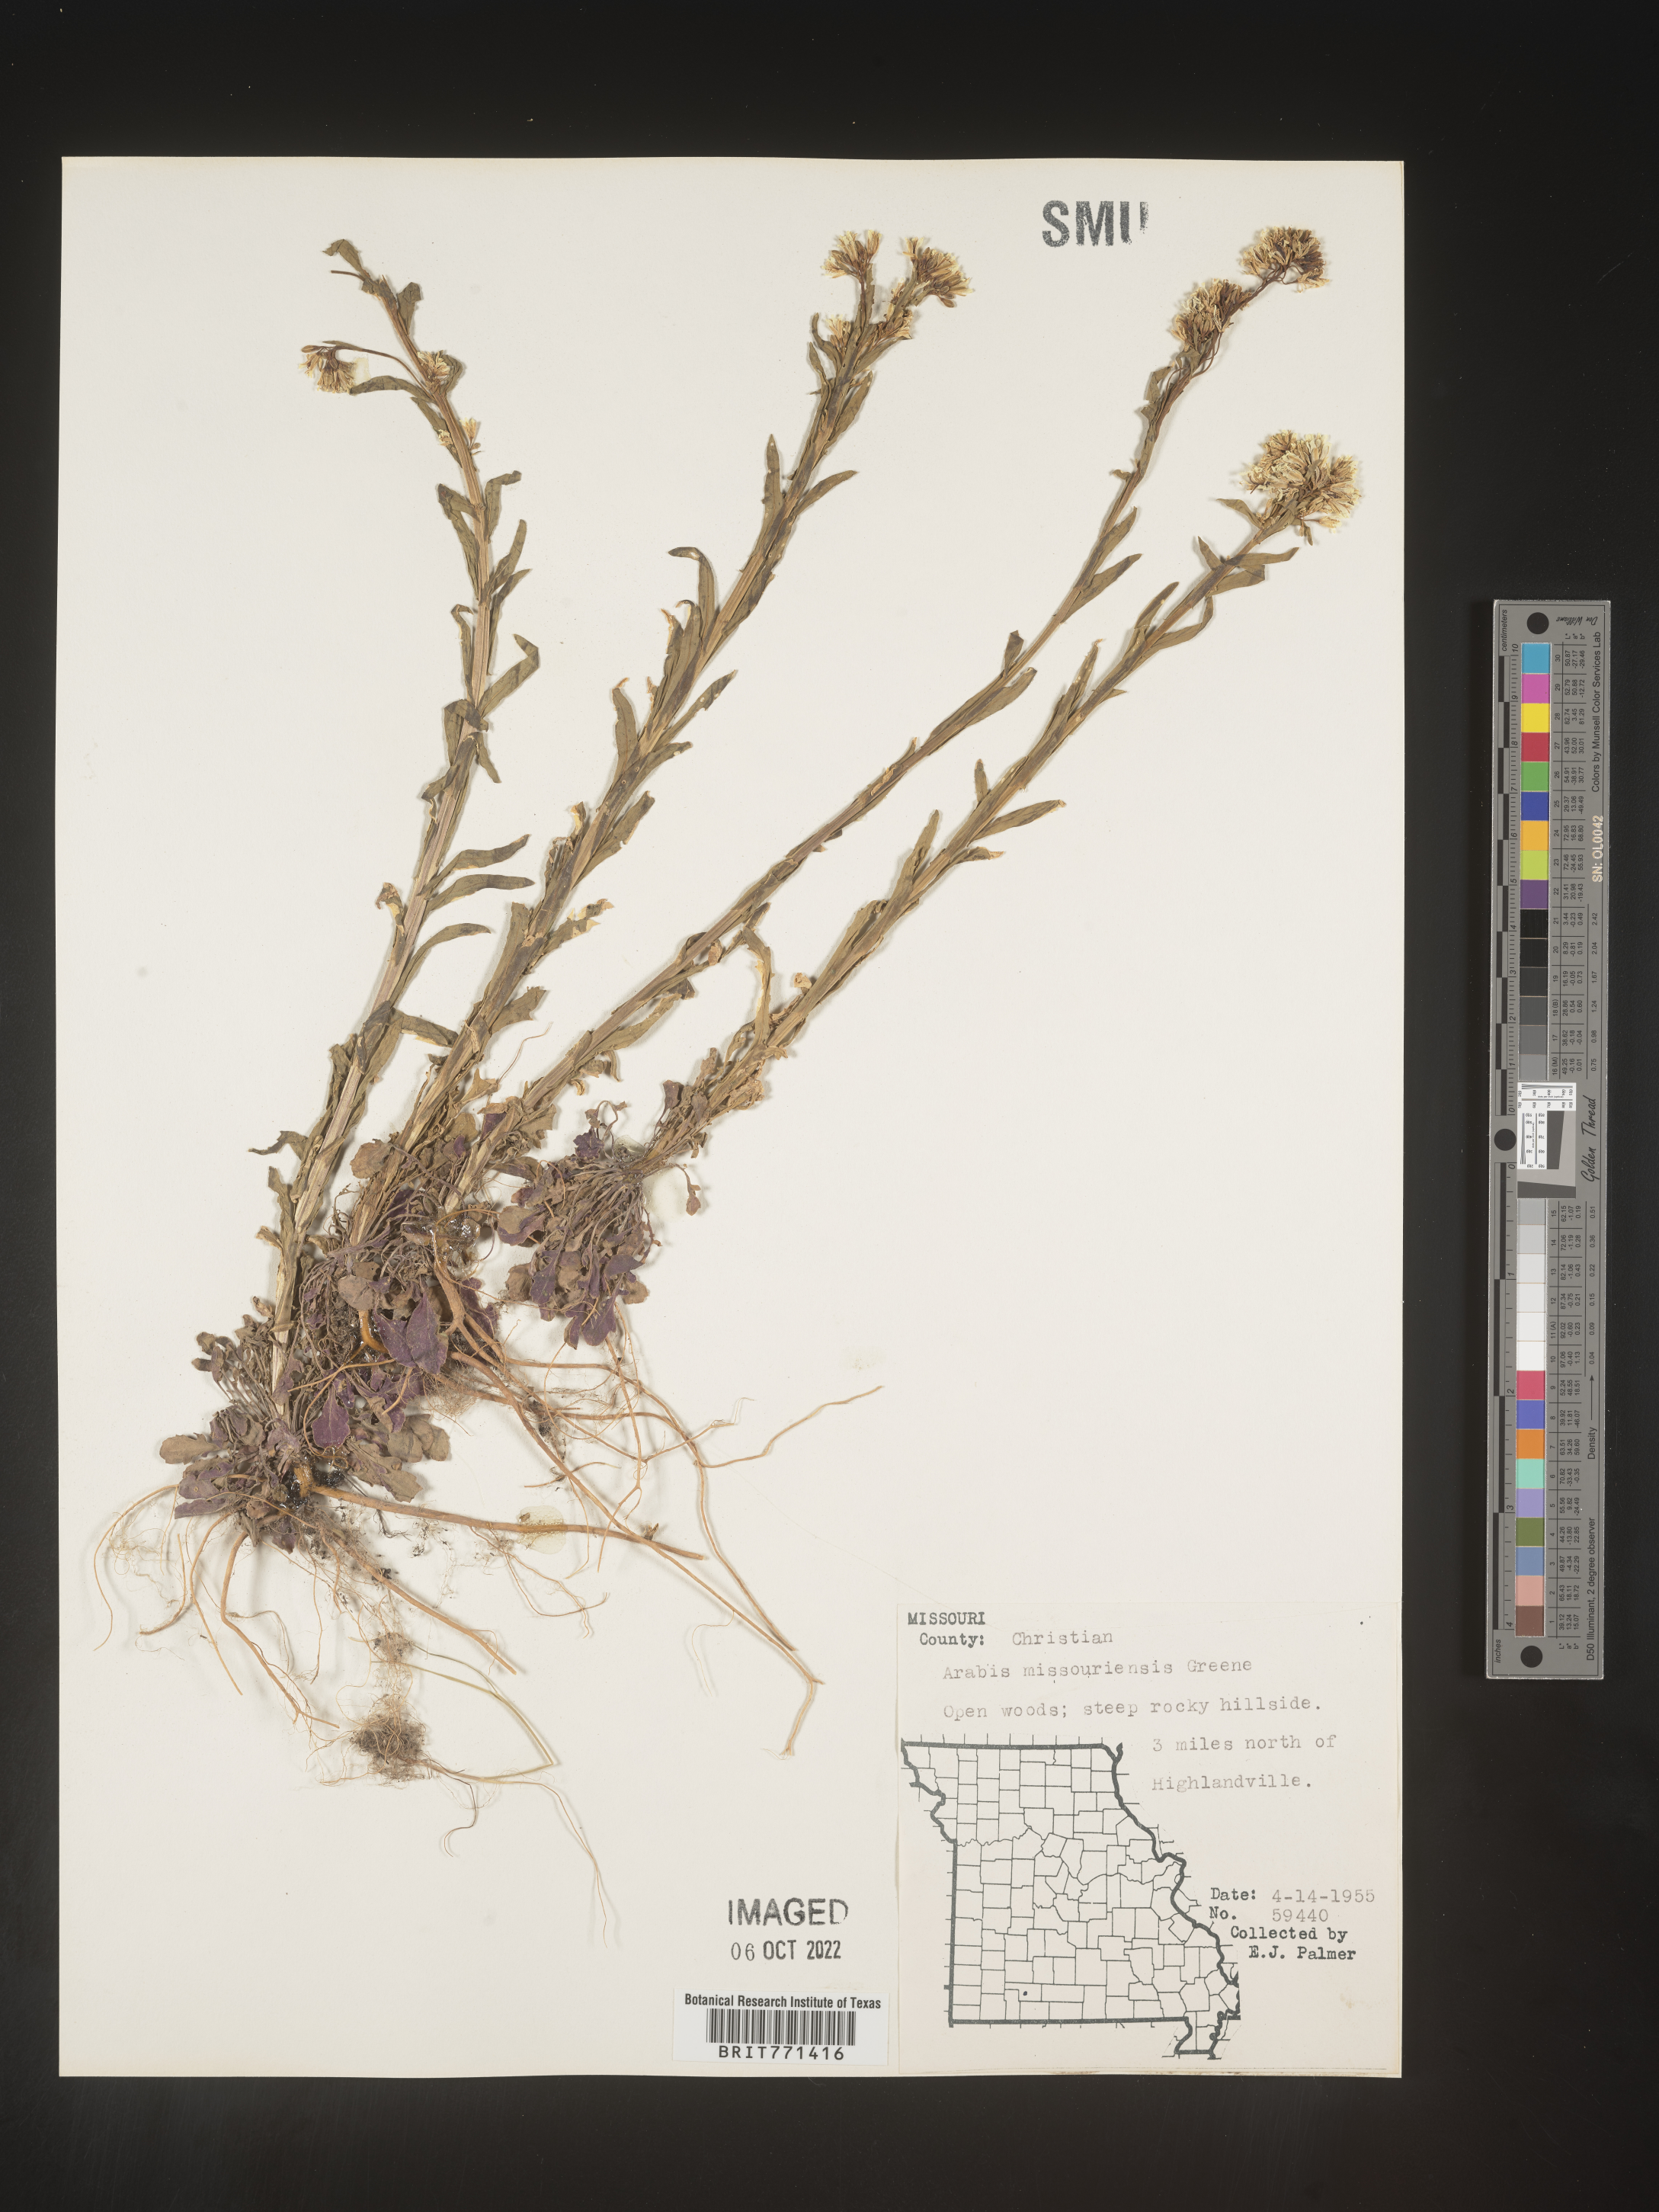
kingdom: Plantae
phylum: Tracheophyta
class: Magnoliopsida
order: Brassicales
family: Brassicaceae
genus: Arabis
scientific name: Arabis
